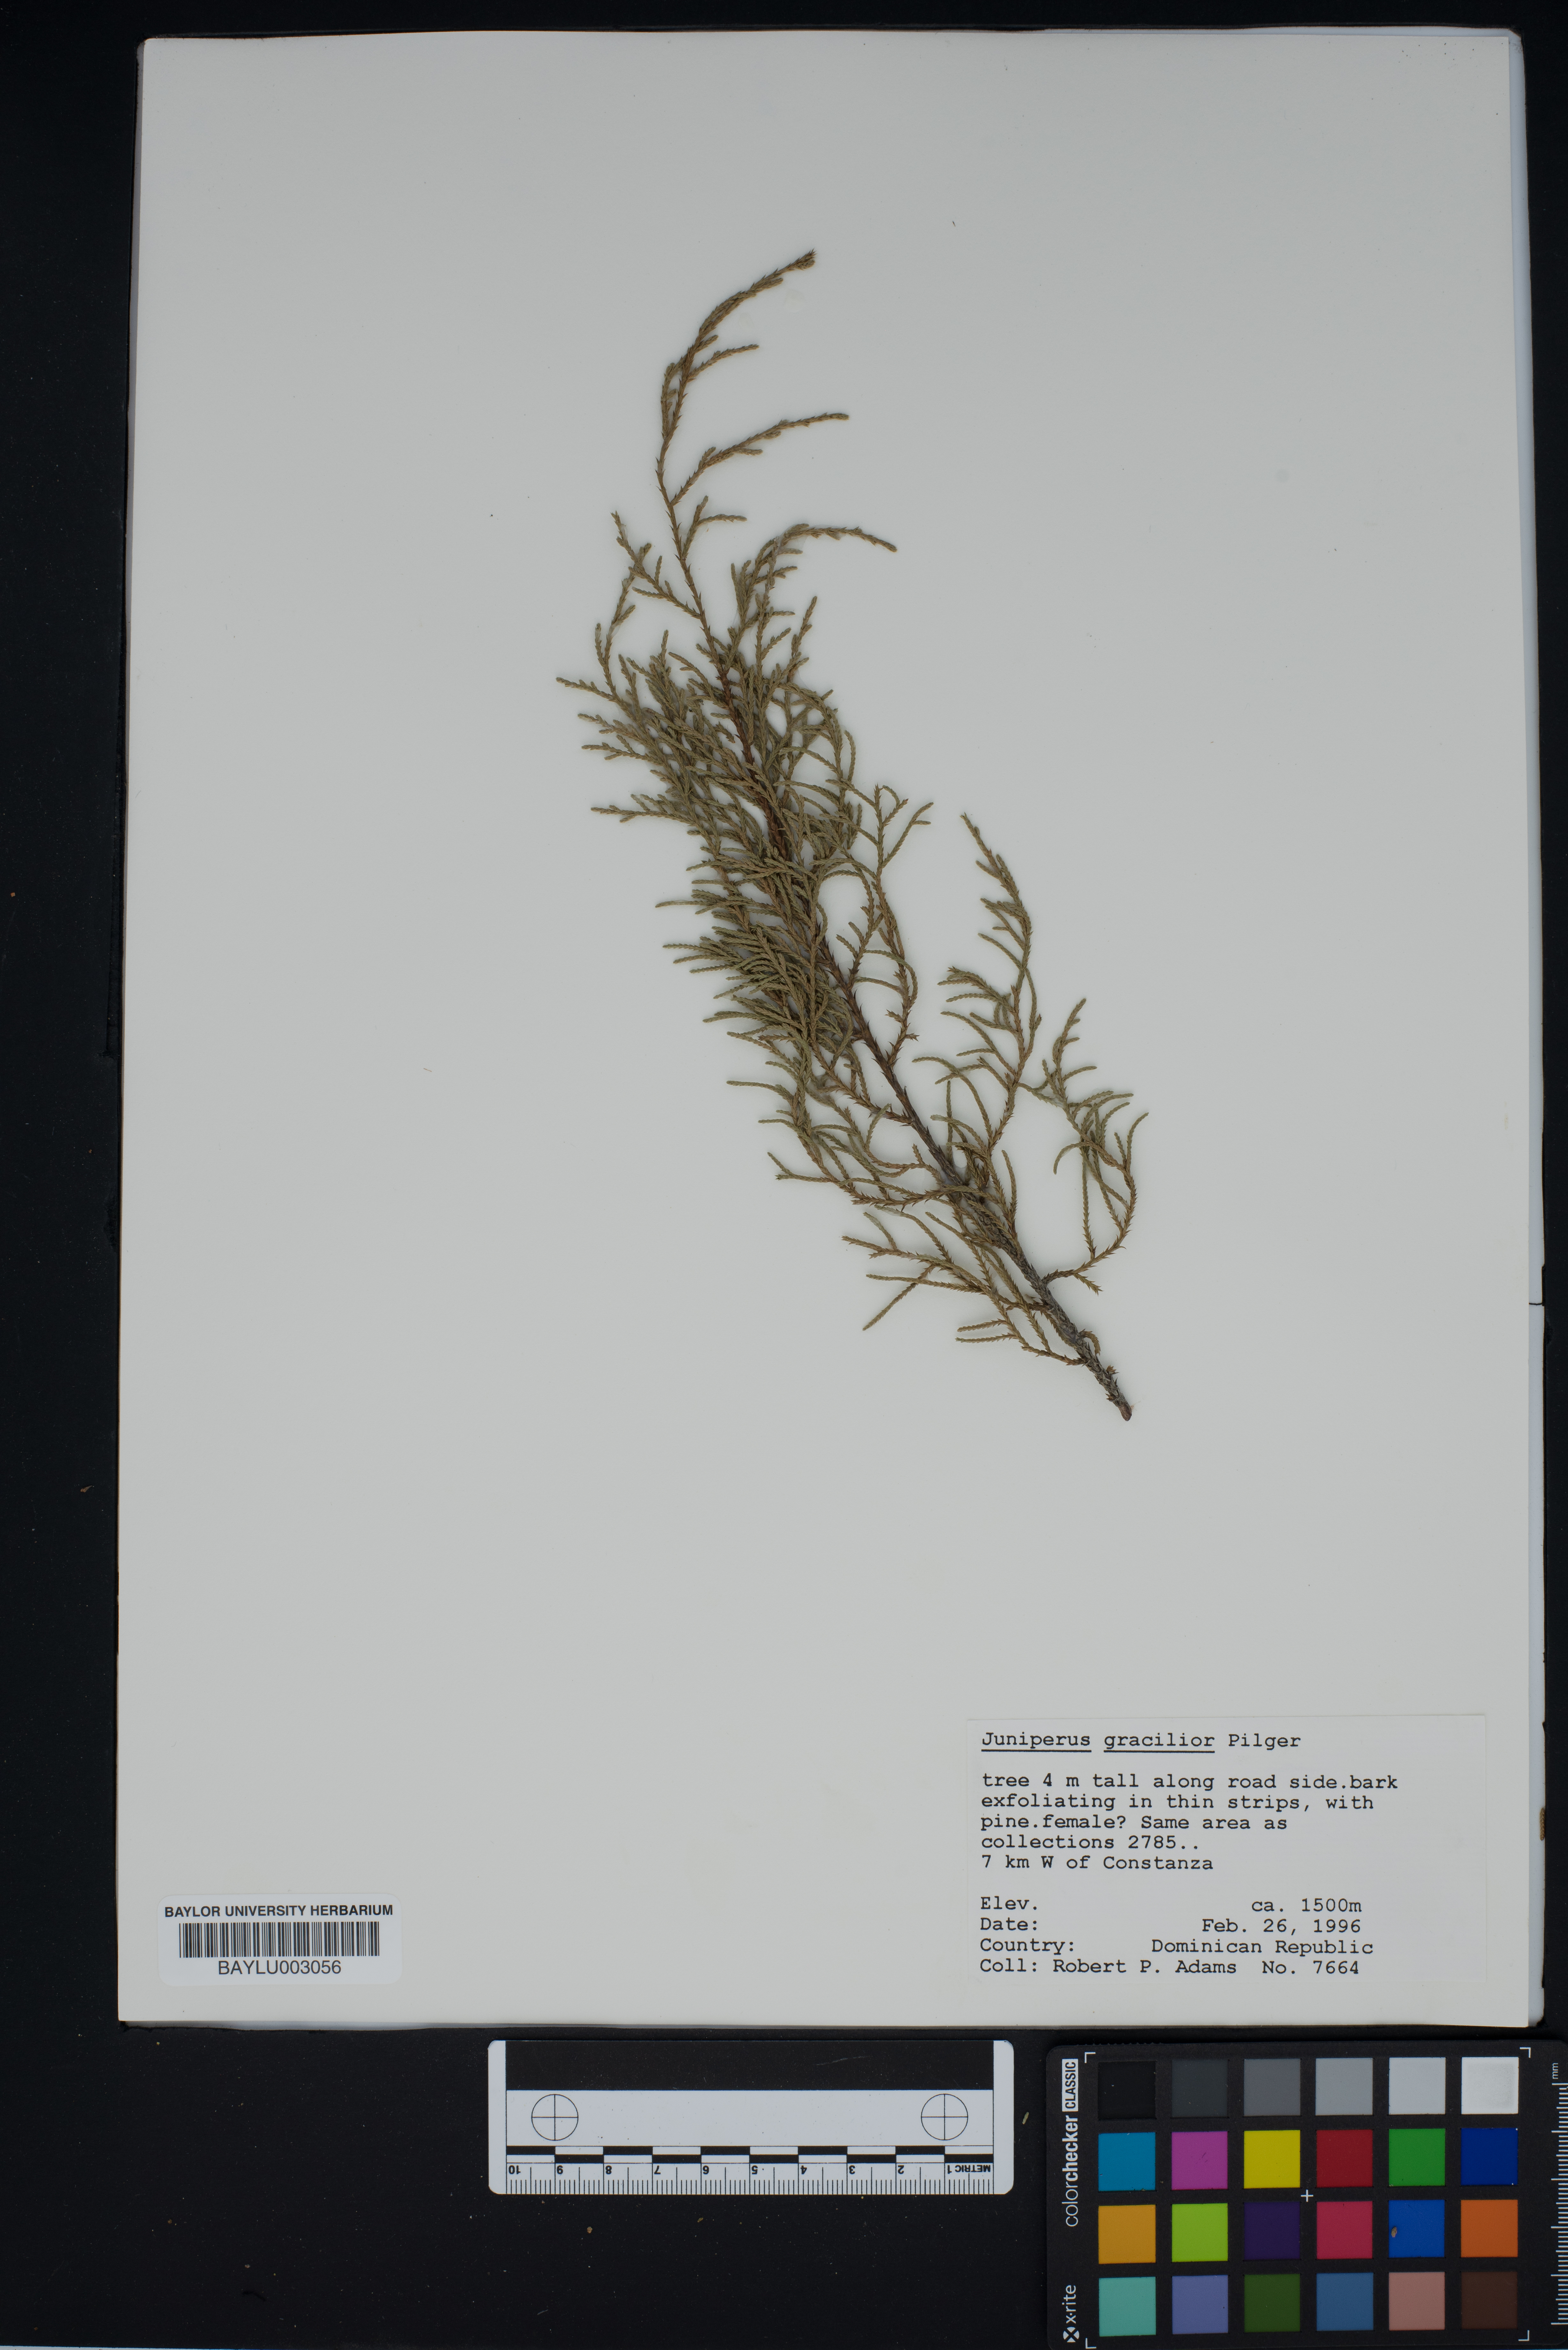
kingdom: Plantae
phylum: Tracheophyta
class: Pinopsida
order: Pinales
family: Cupressaceae
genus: Juniperus
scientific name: Juniperus gracilior
